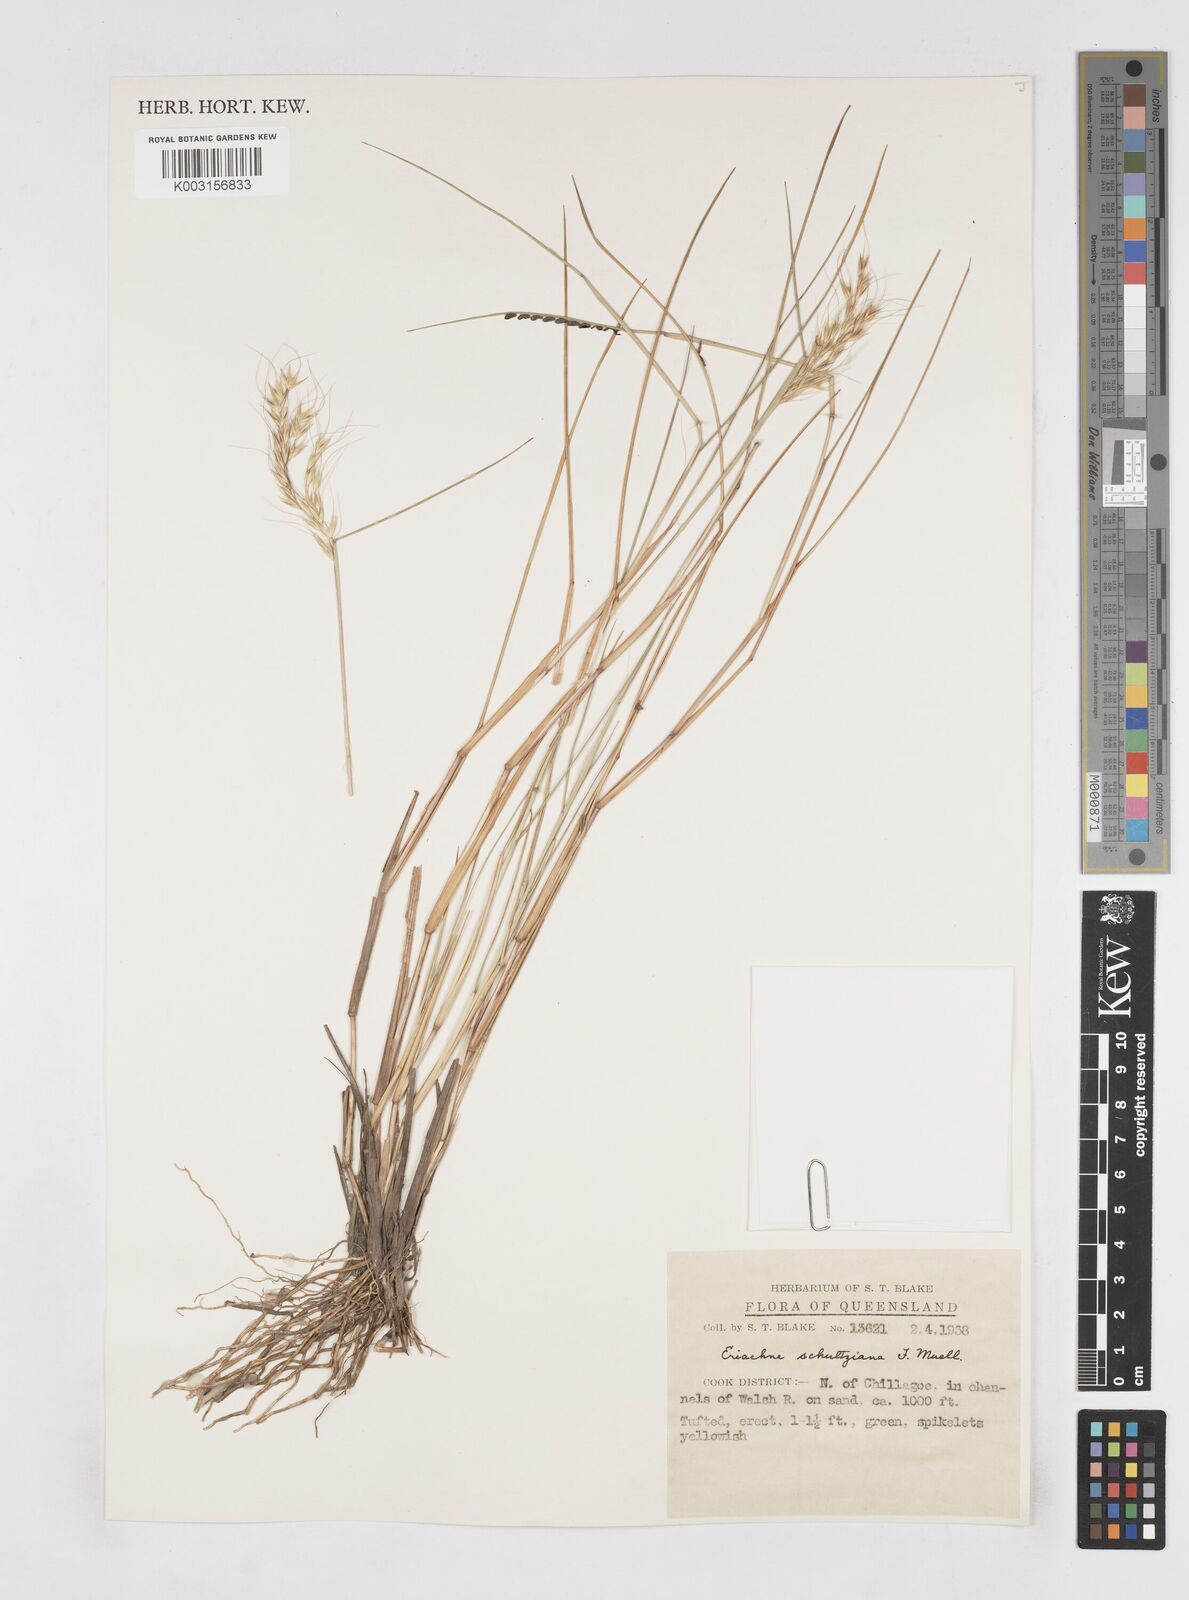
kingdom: Plantae
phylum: Tracheophyta
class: Liliopsida
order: Poales
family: Poaceae
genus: Eriachne
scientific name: Eriachne schultziana
